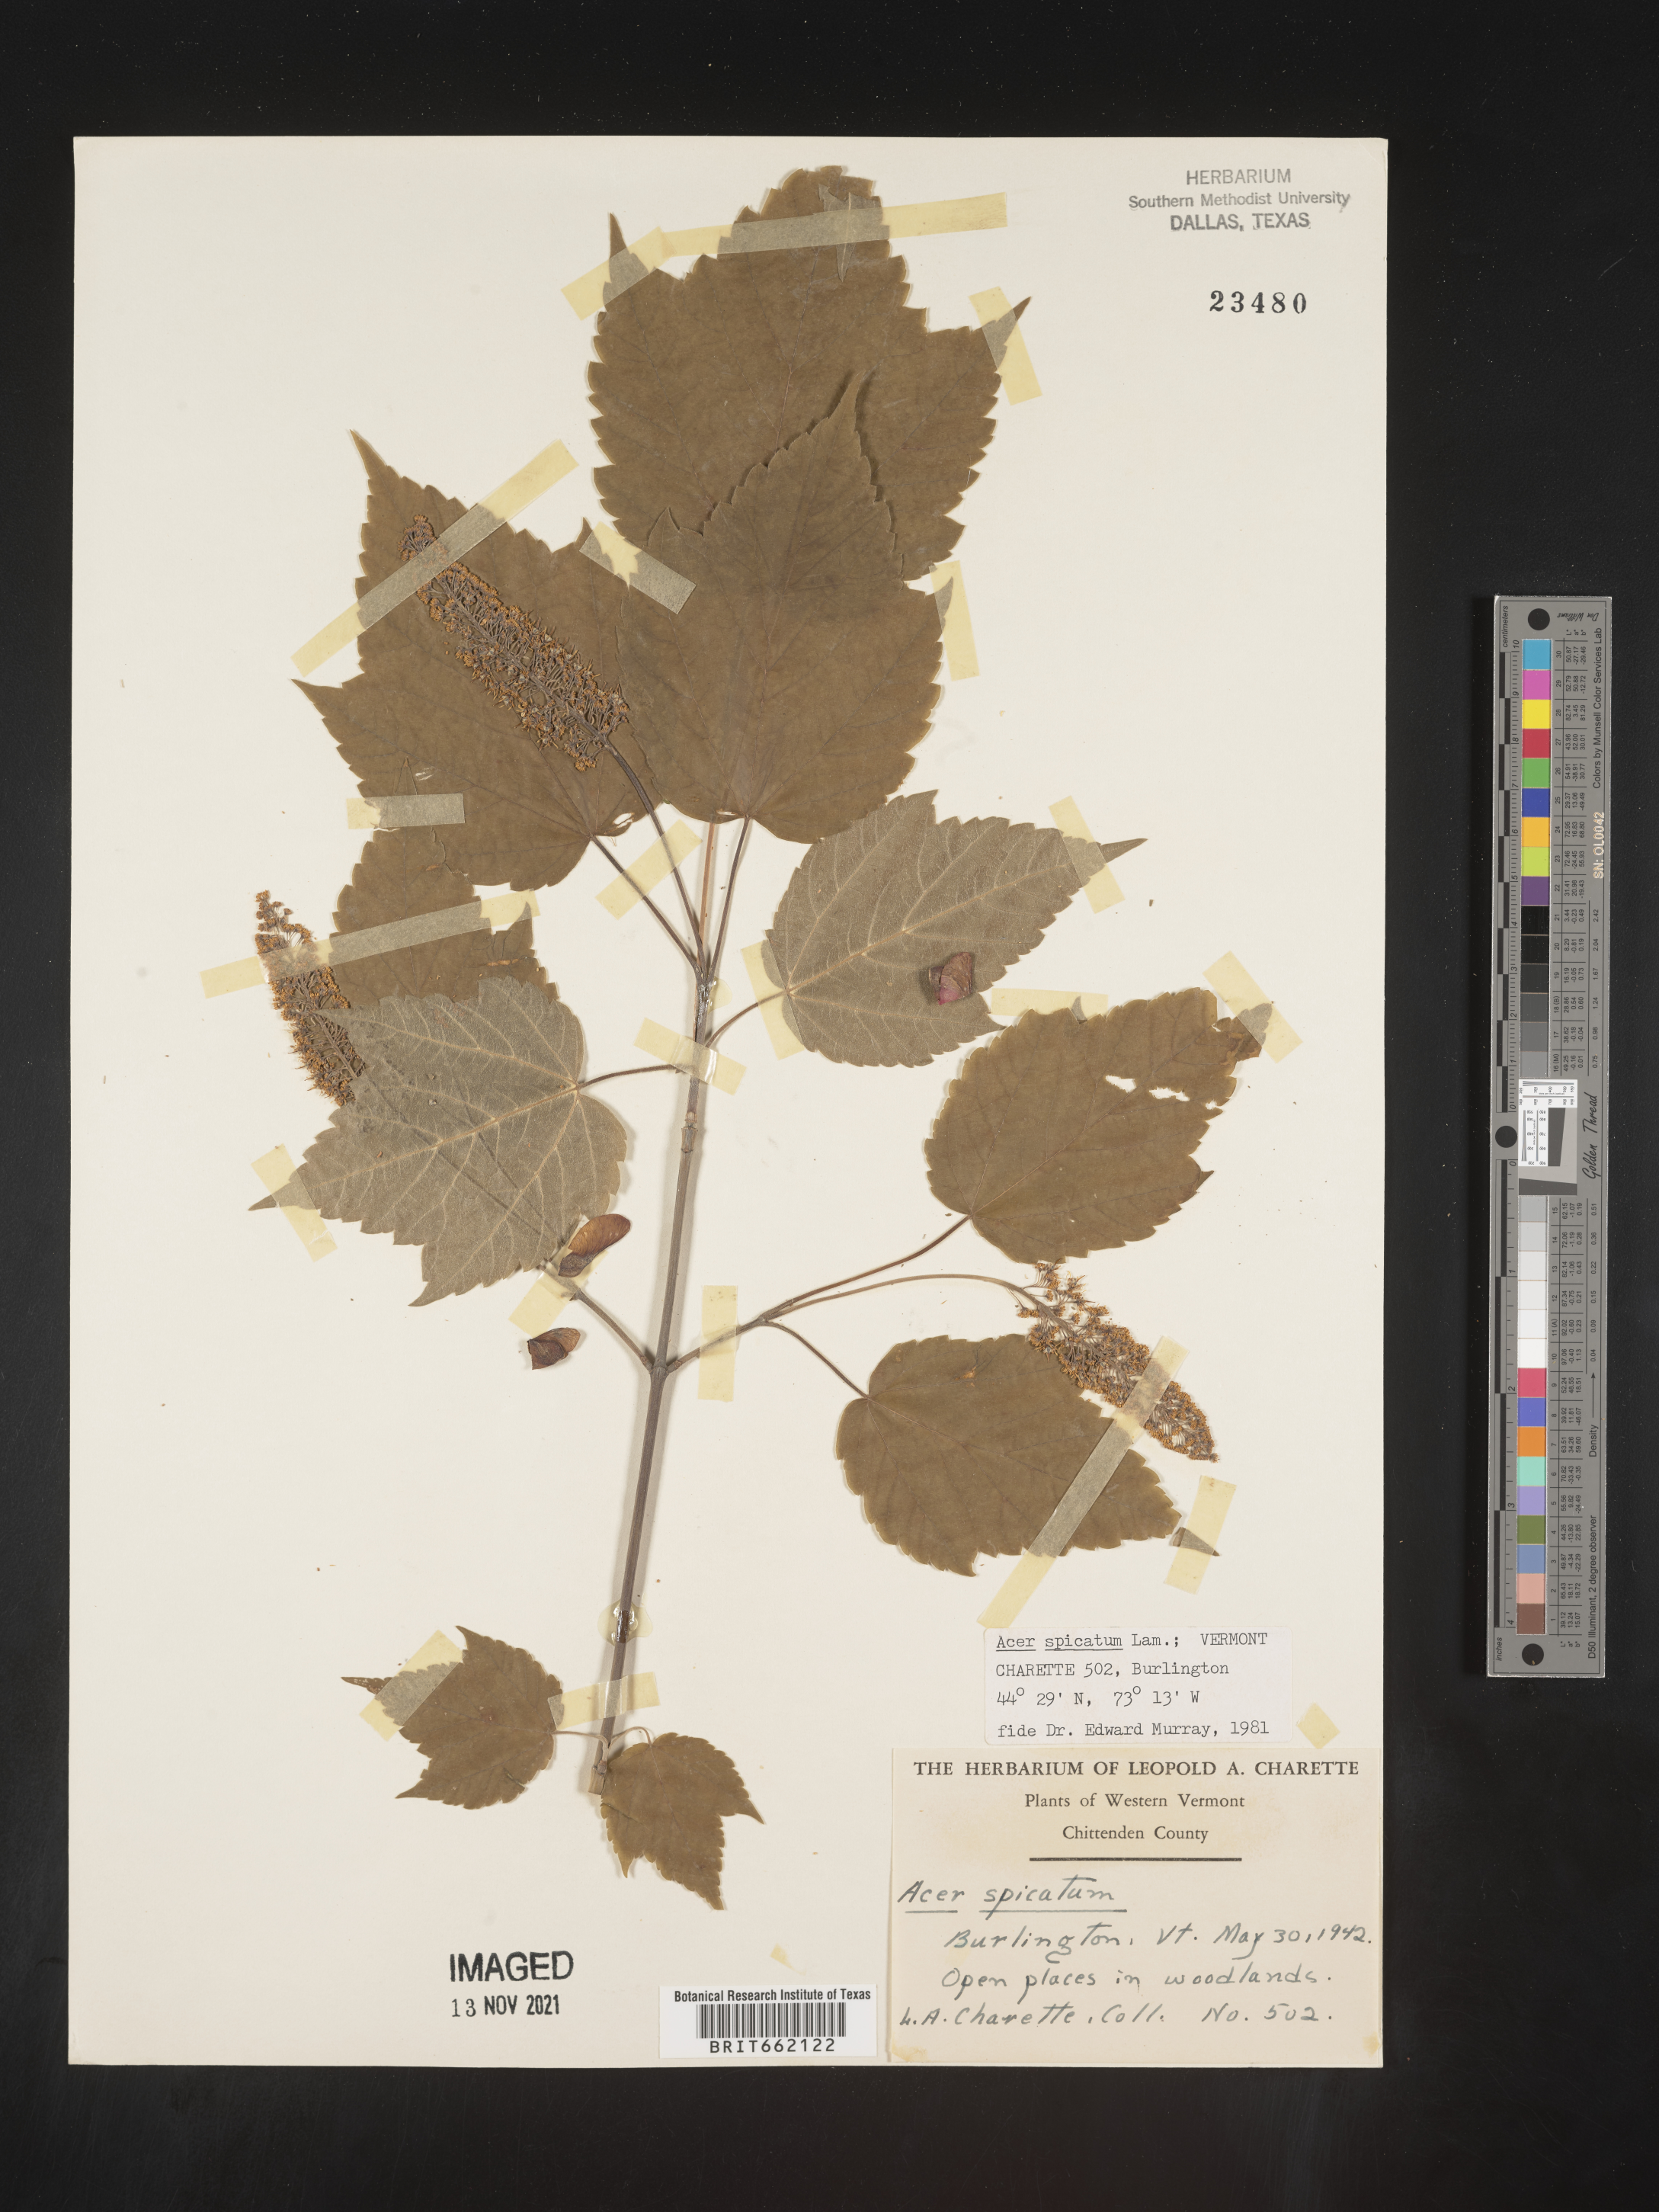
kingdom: Plantae
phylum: Tracheophyta
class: Magnoliopsida
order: Sapindales
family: Sapindaceae
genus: Acer
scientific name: Acer spicatum
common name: Mountain maple
